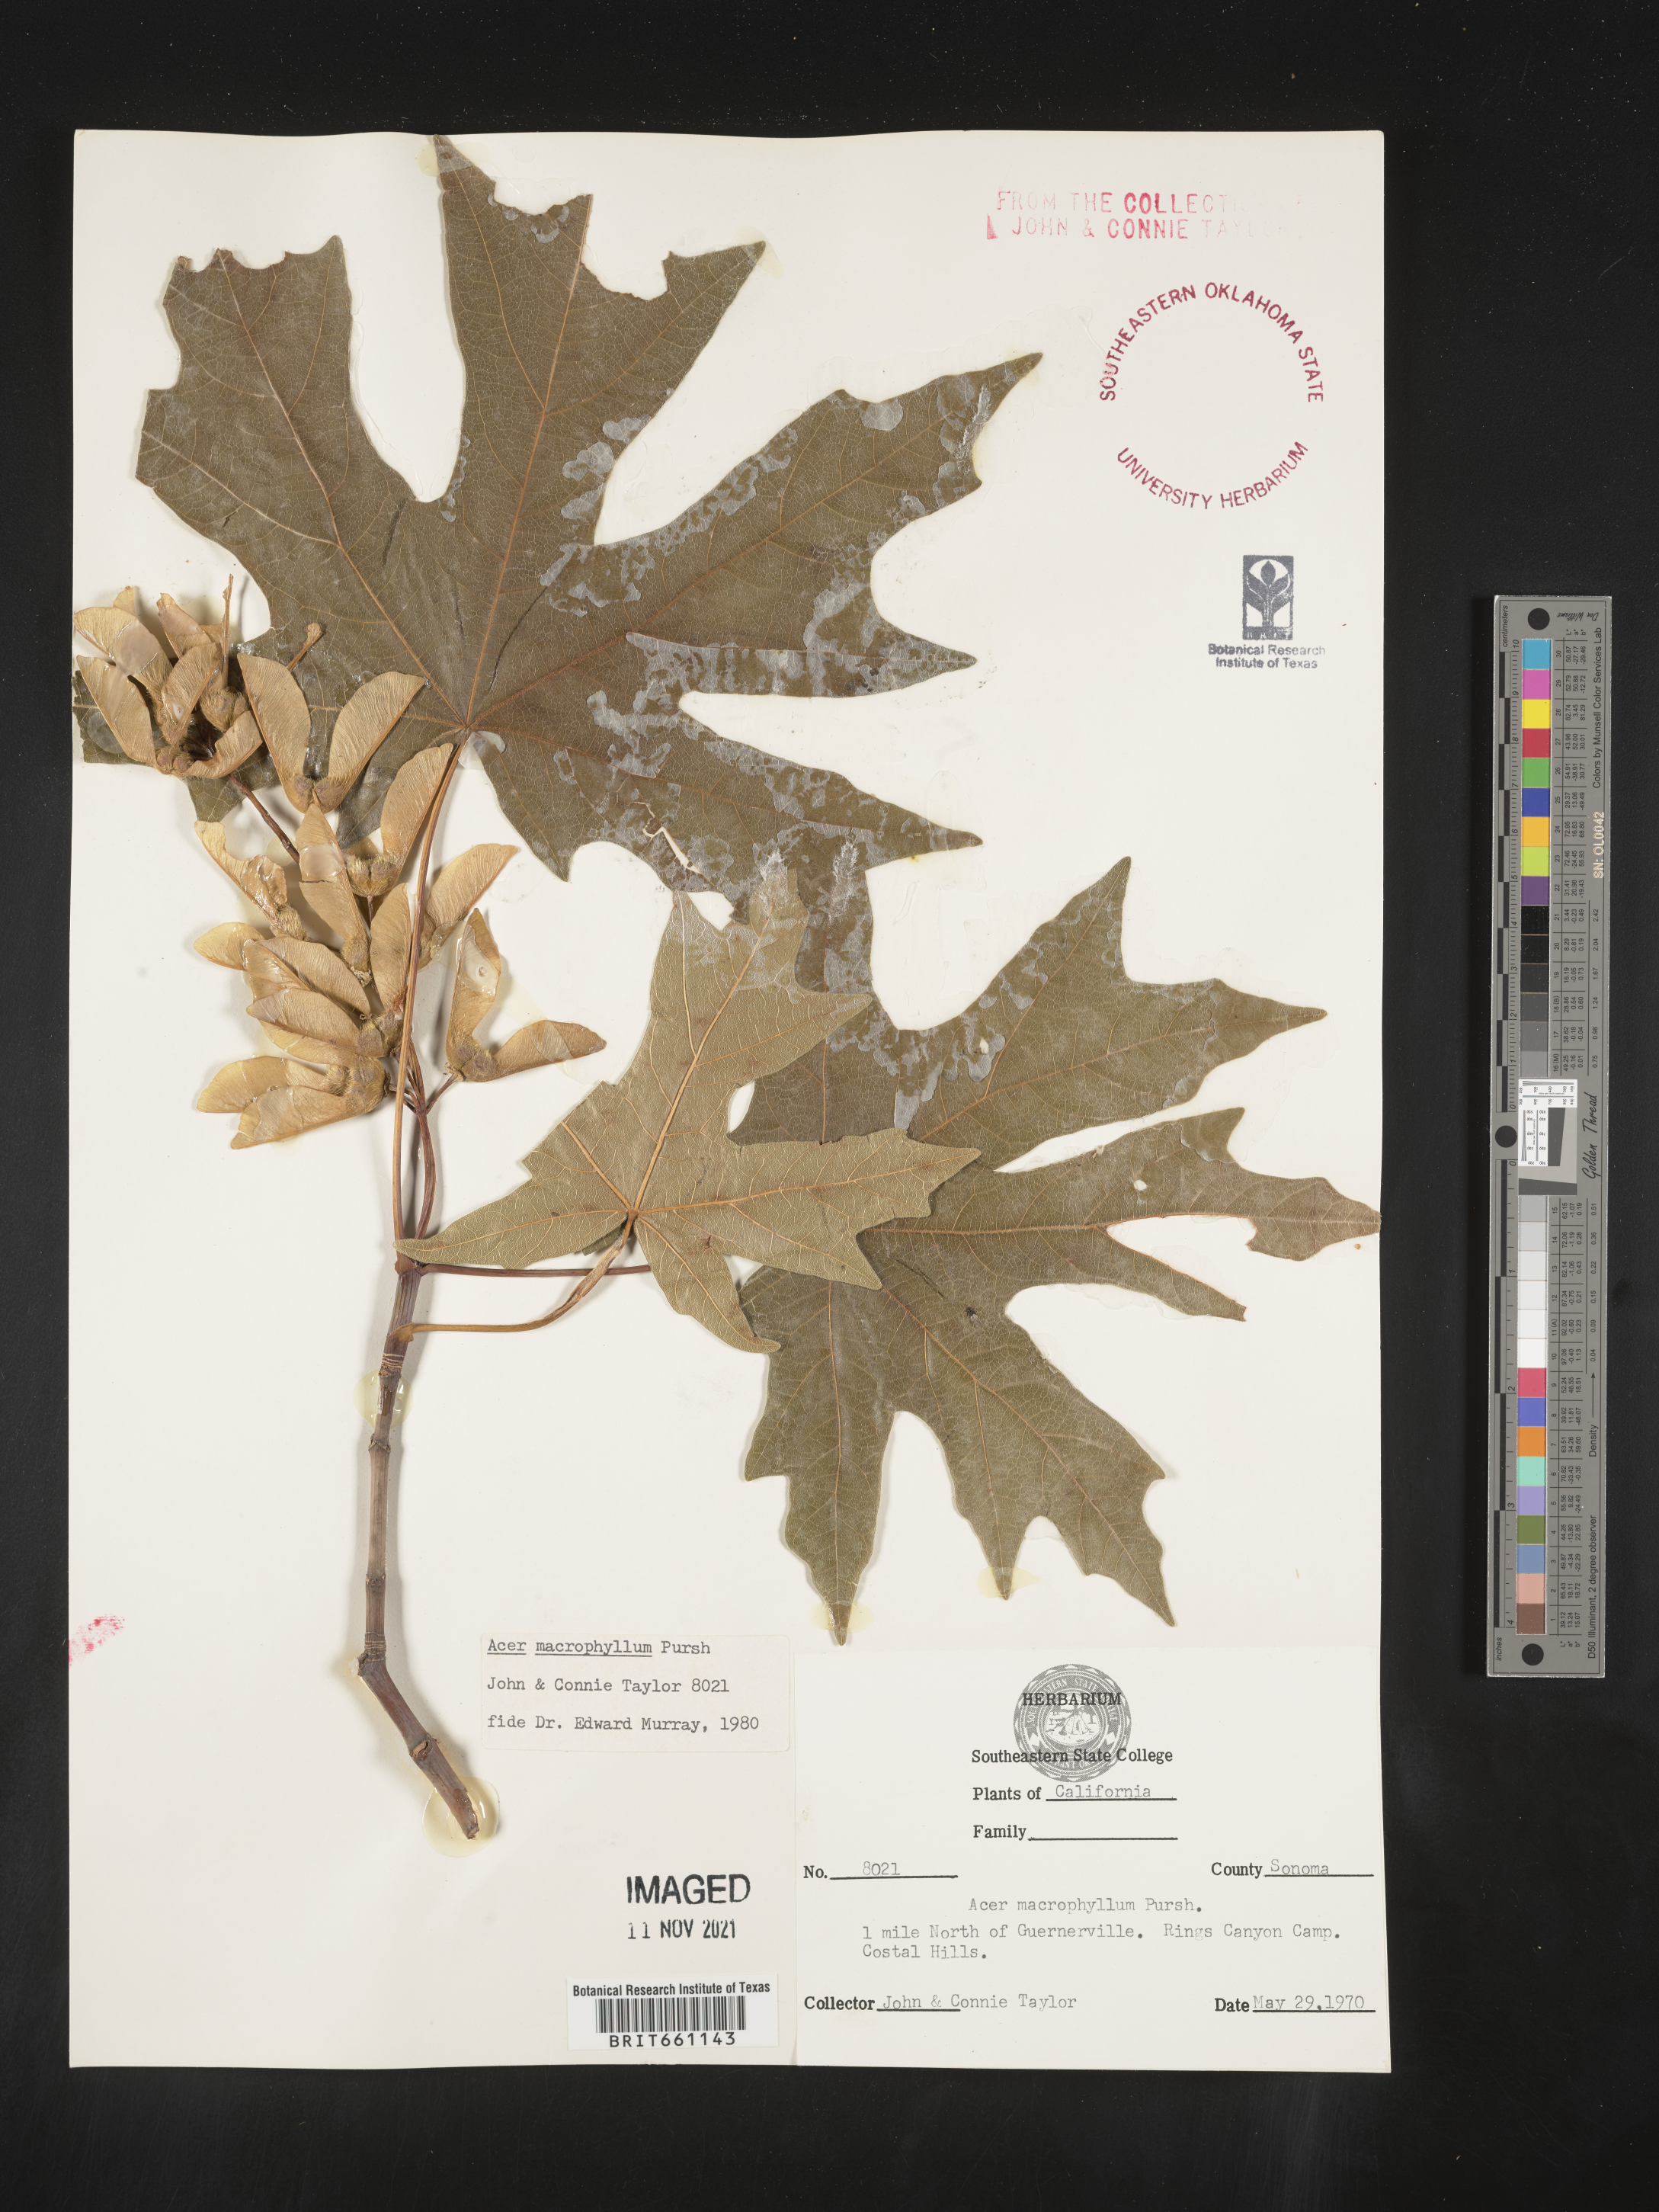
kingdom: Plantae
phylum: Tracheophyta
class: Magnoliopsida
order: Sapindales
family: Sapindaceae
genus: Acer
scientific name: Acer macrophyllum
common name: Oregon maple
